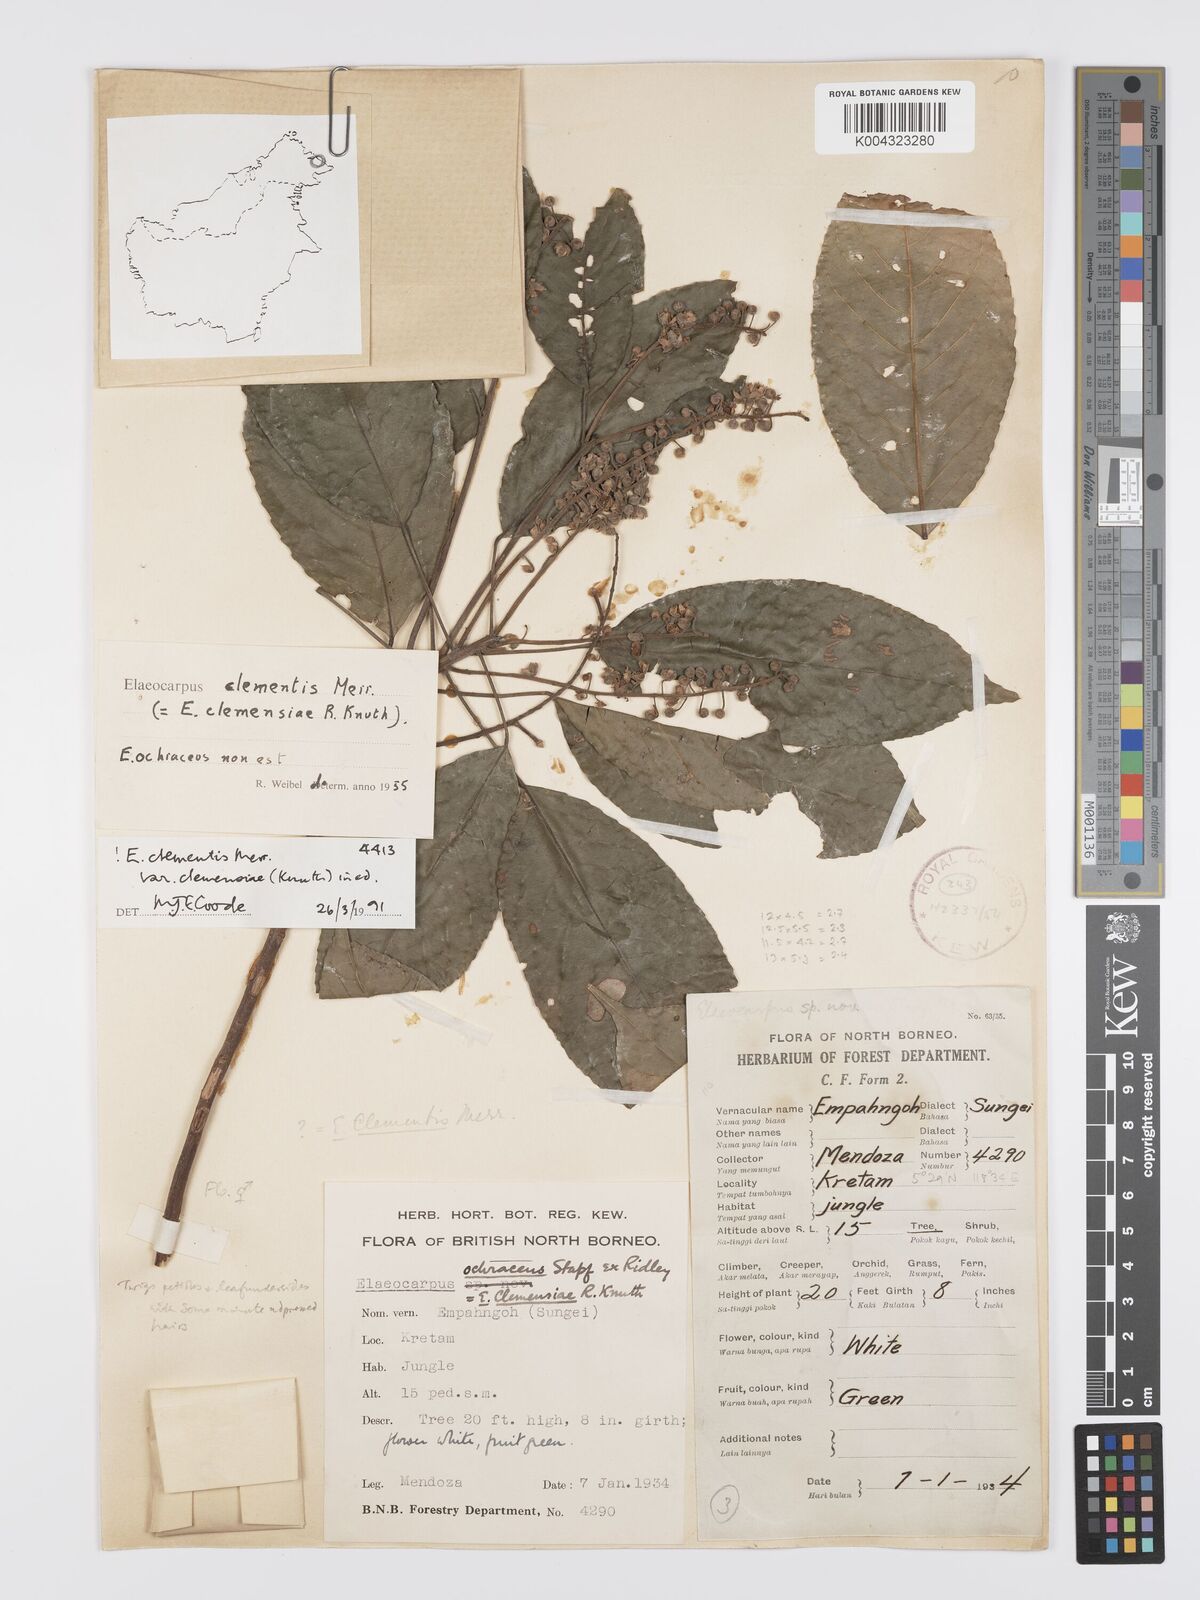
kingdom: Plantae
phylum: Tracheophyta
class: Magnoliopsida
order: Oxalidales
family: Elaeocarpaceae
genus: Elaeocarpus
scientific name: Elaeocarpus clementis
